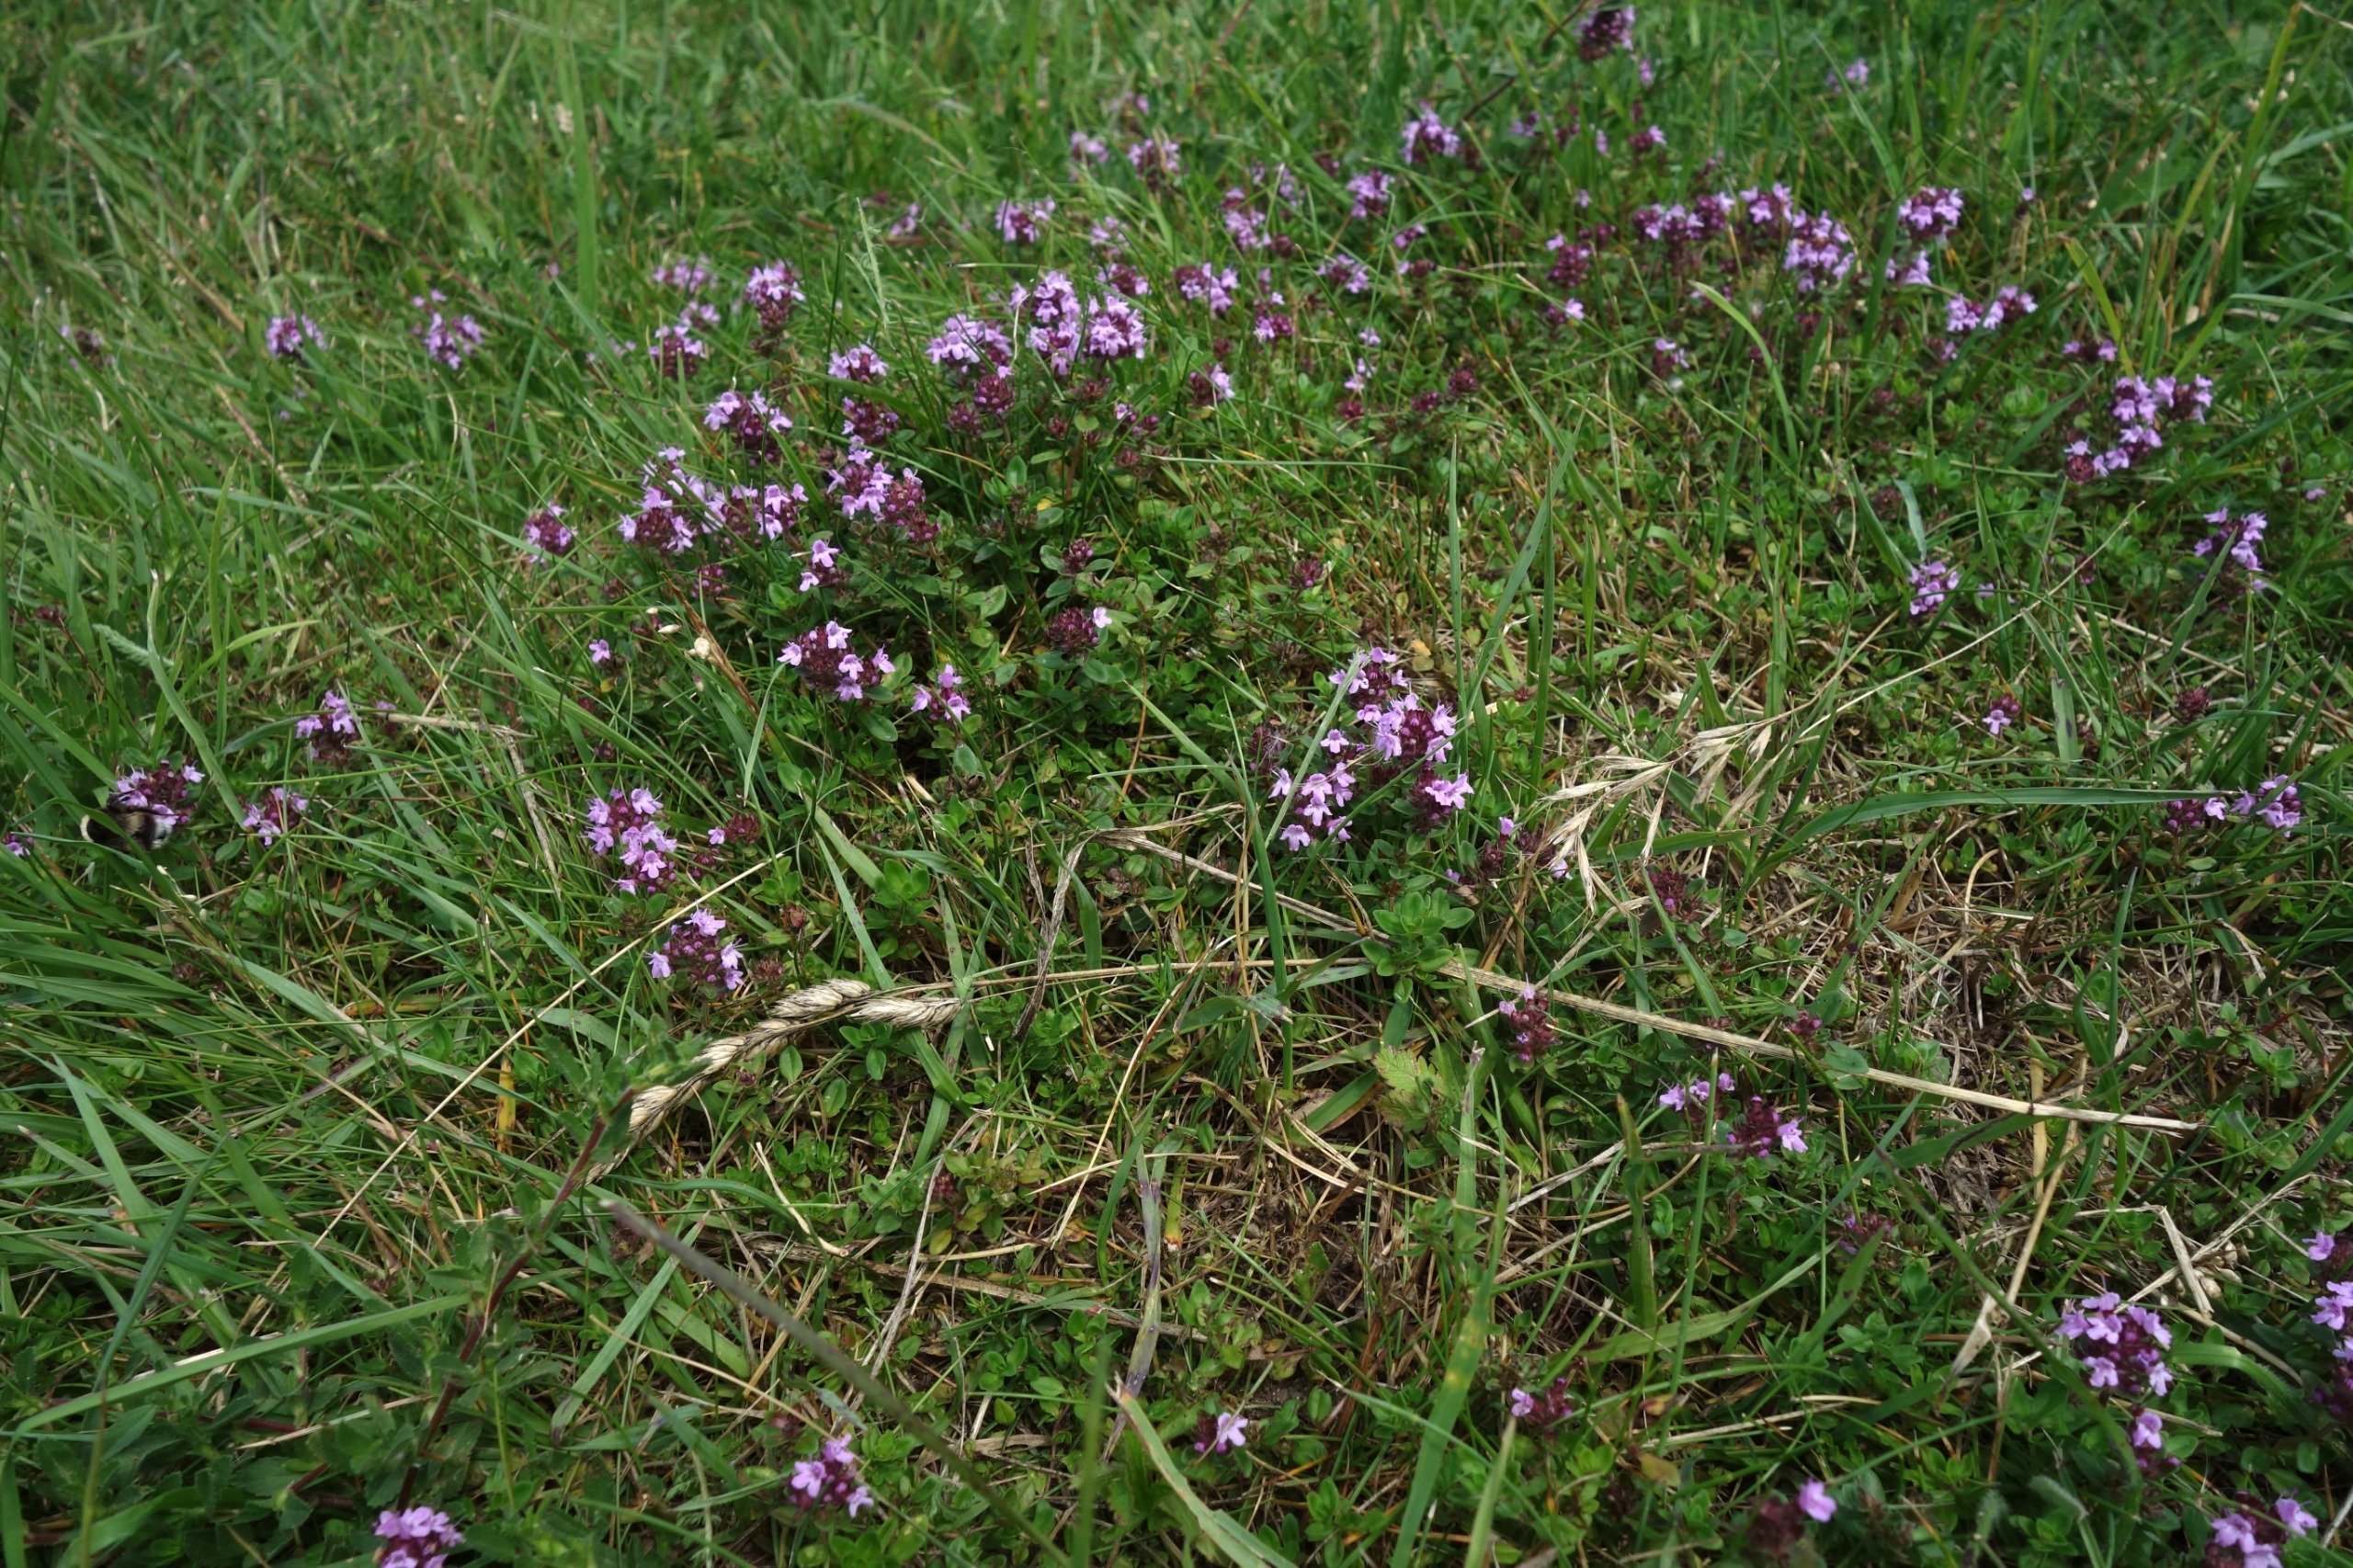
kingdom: Plantae
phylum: Tracheophyta
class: Magnoliopsida
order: Lamiales
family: Lamiaceae
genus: Thymus
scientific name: Thymus pulegioides
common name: Bredbladet timian
